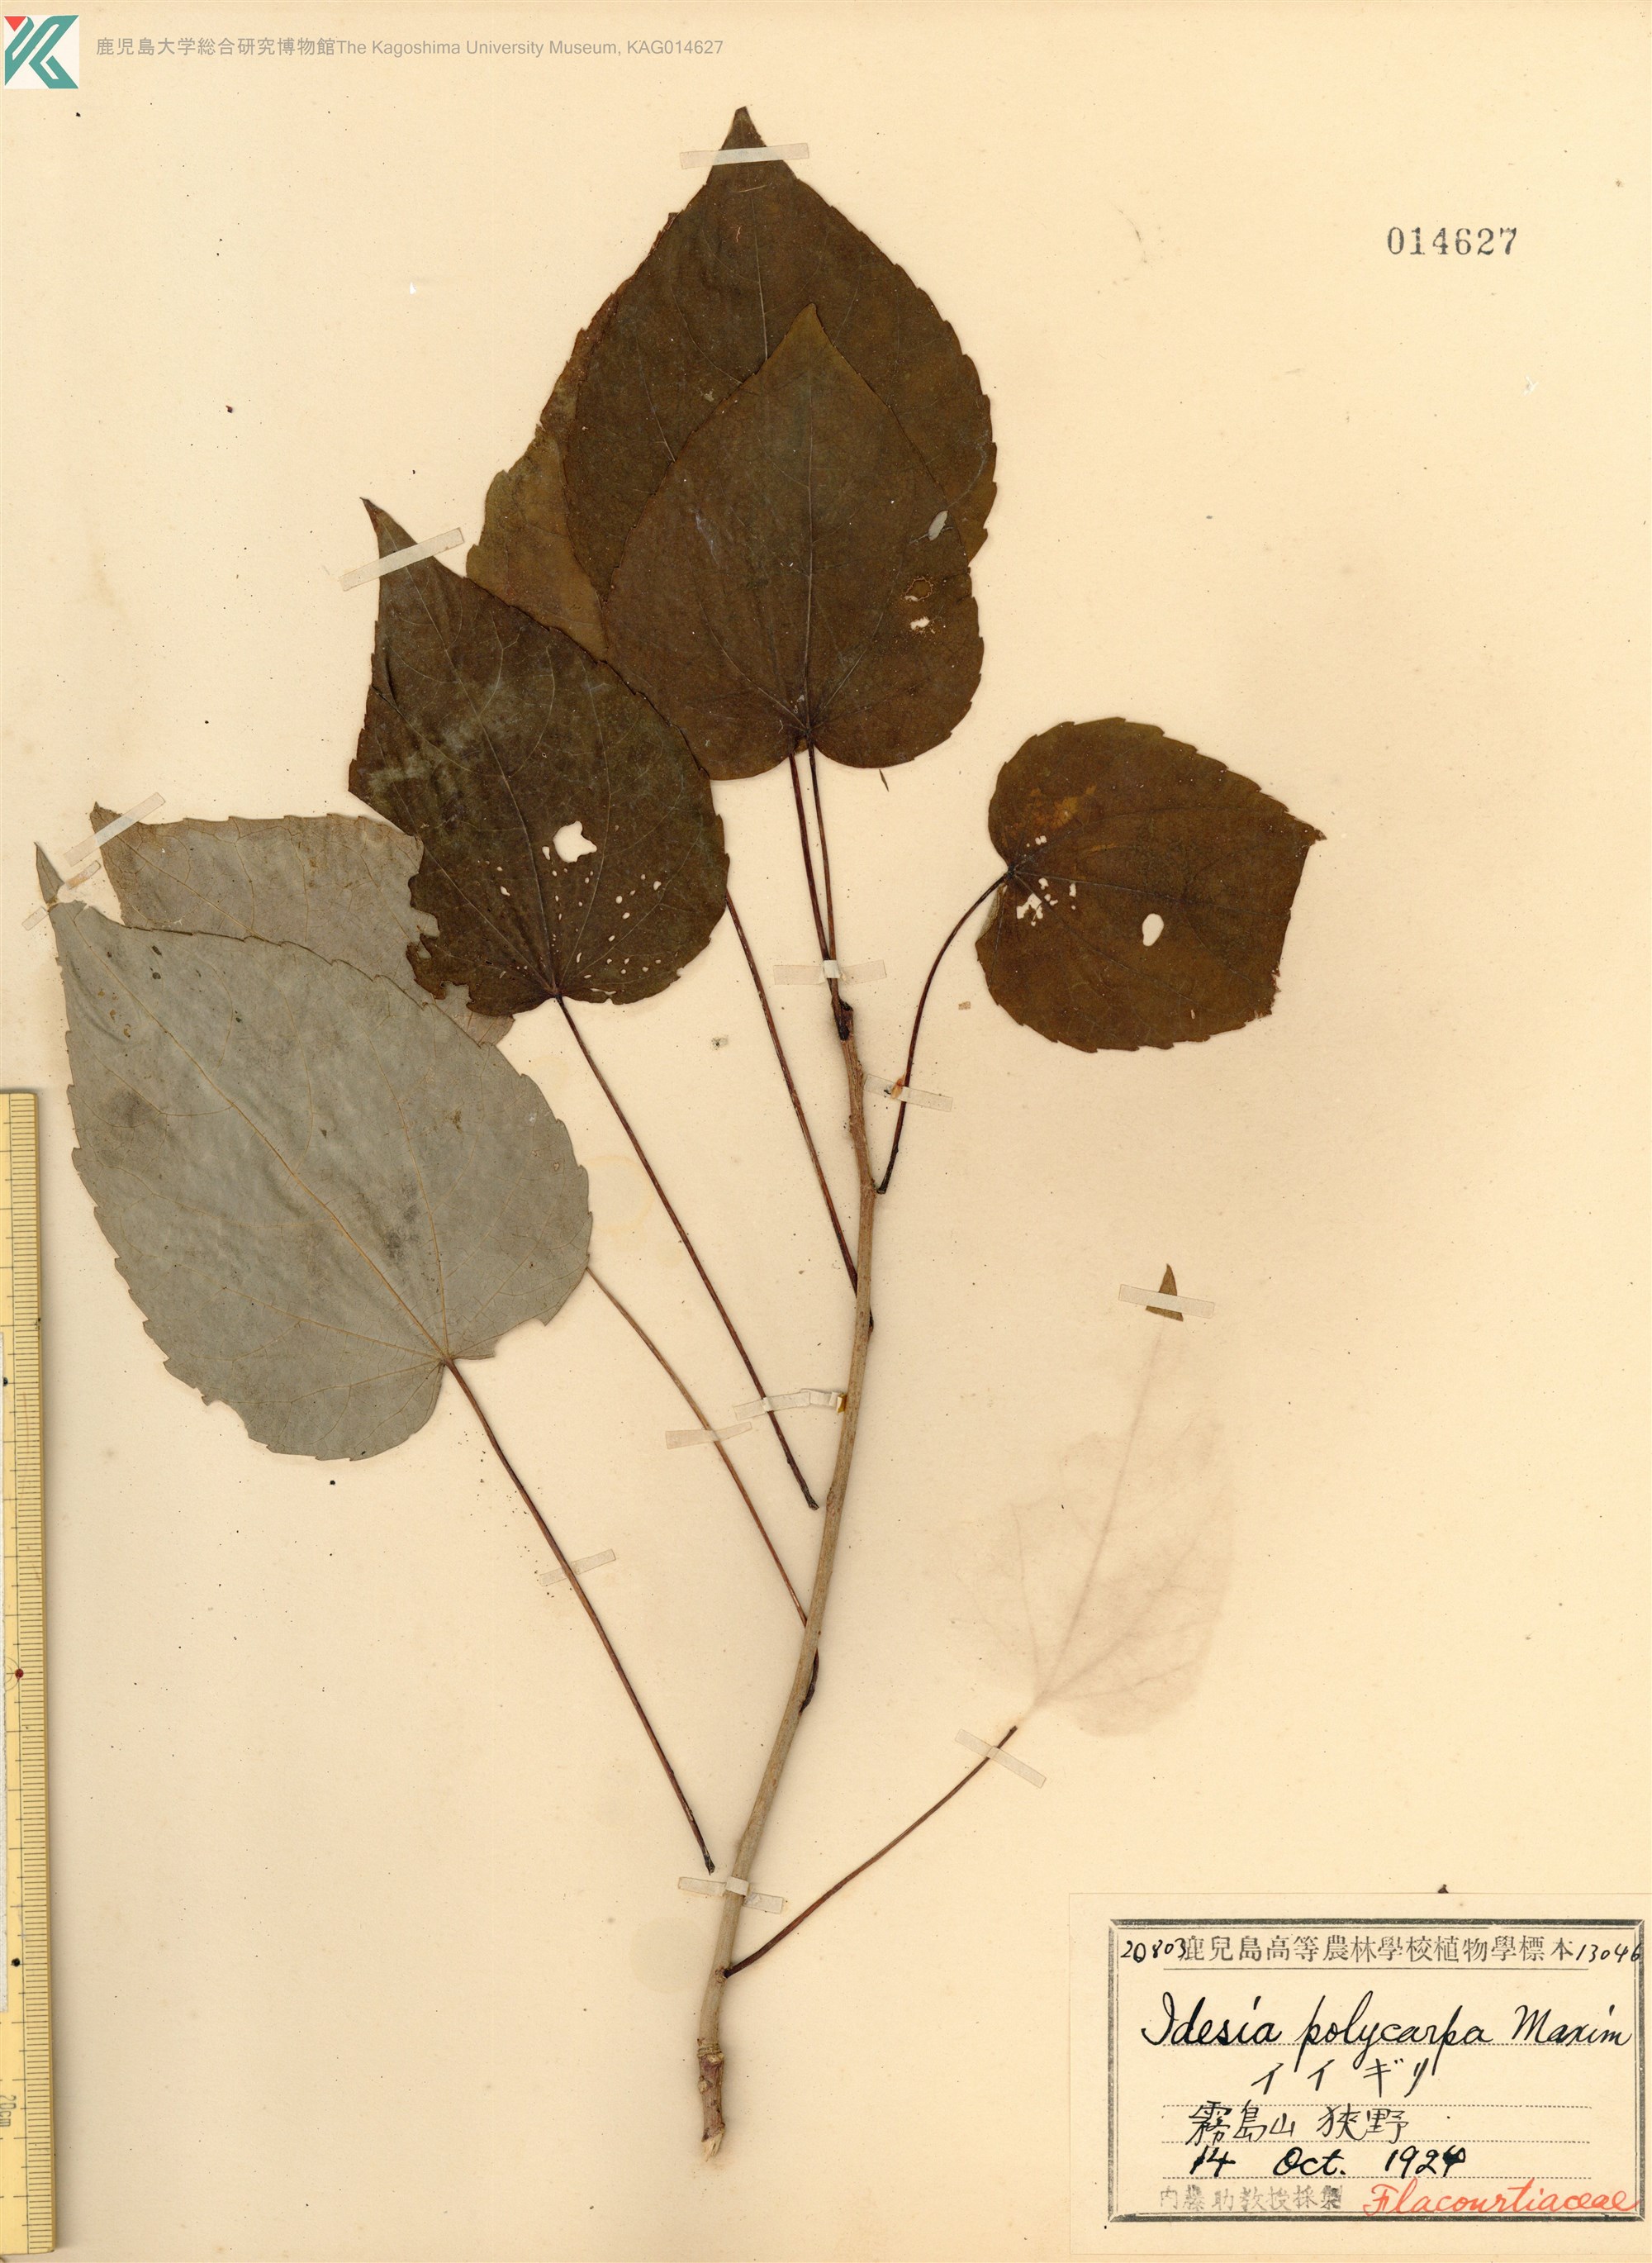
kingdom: Plantae
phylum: Tracheophyta
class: Magnoliopsida
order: Malpighiales
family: Salicaceae
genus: Idesia
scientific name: Idesia polycarpa
